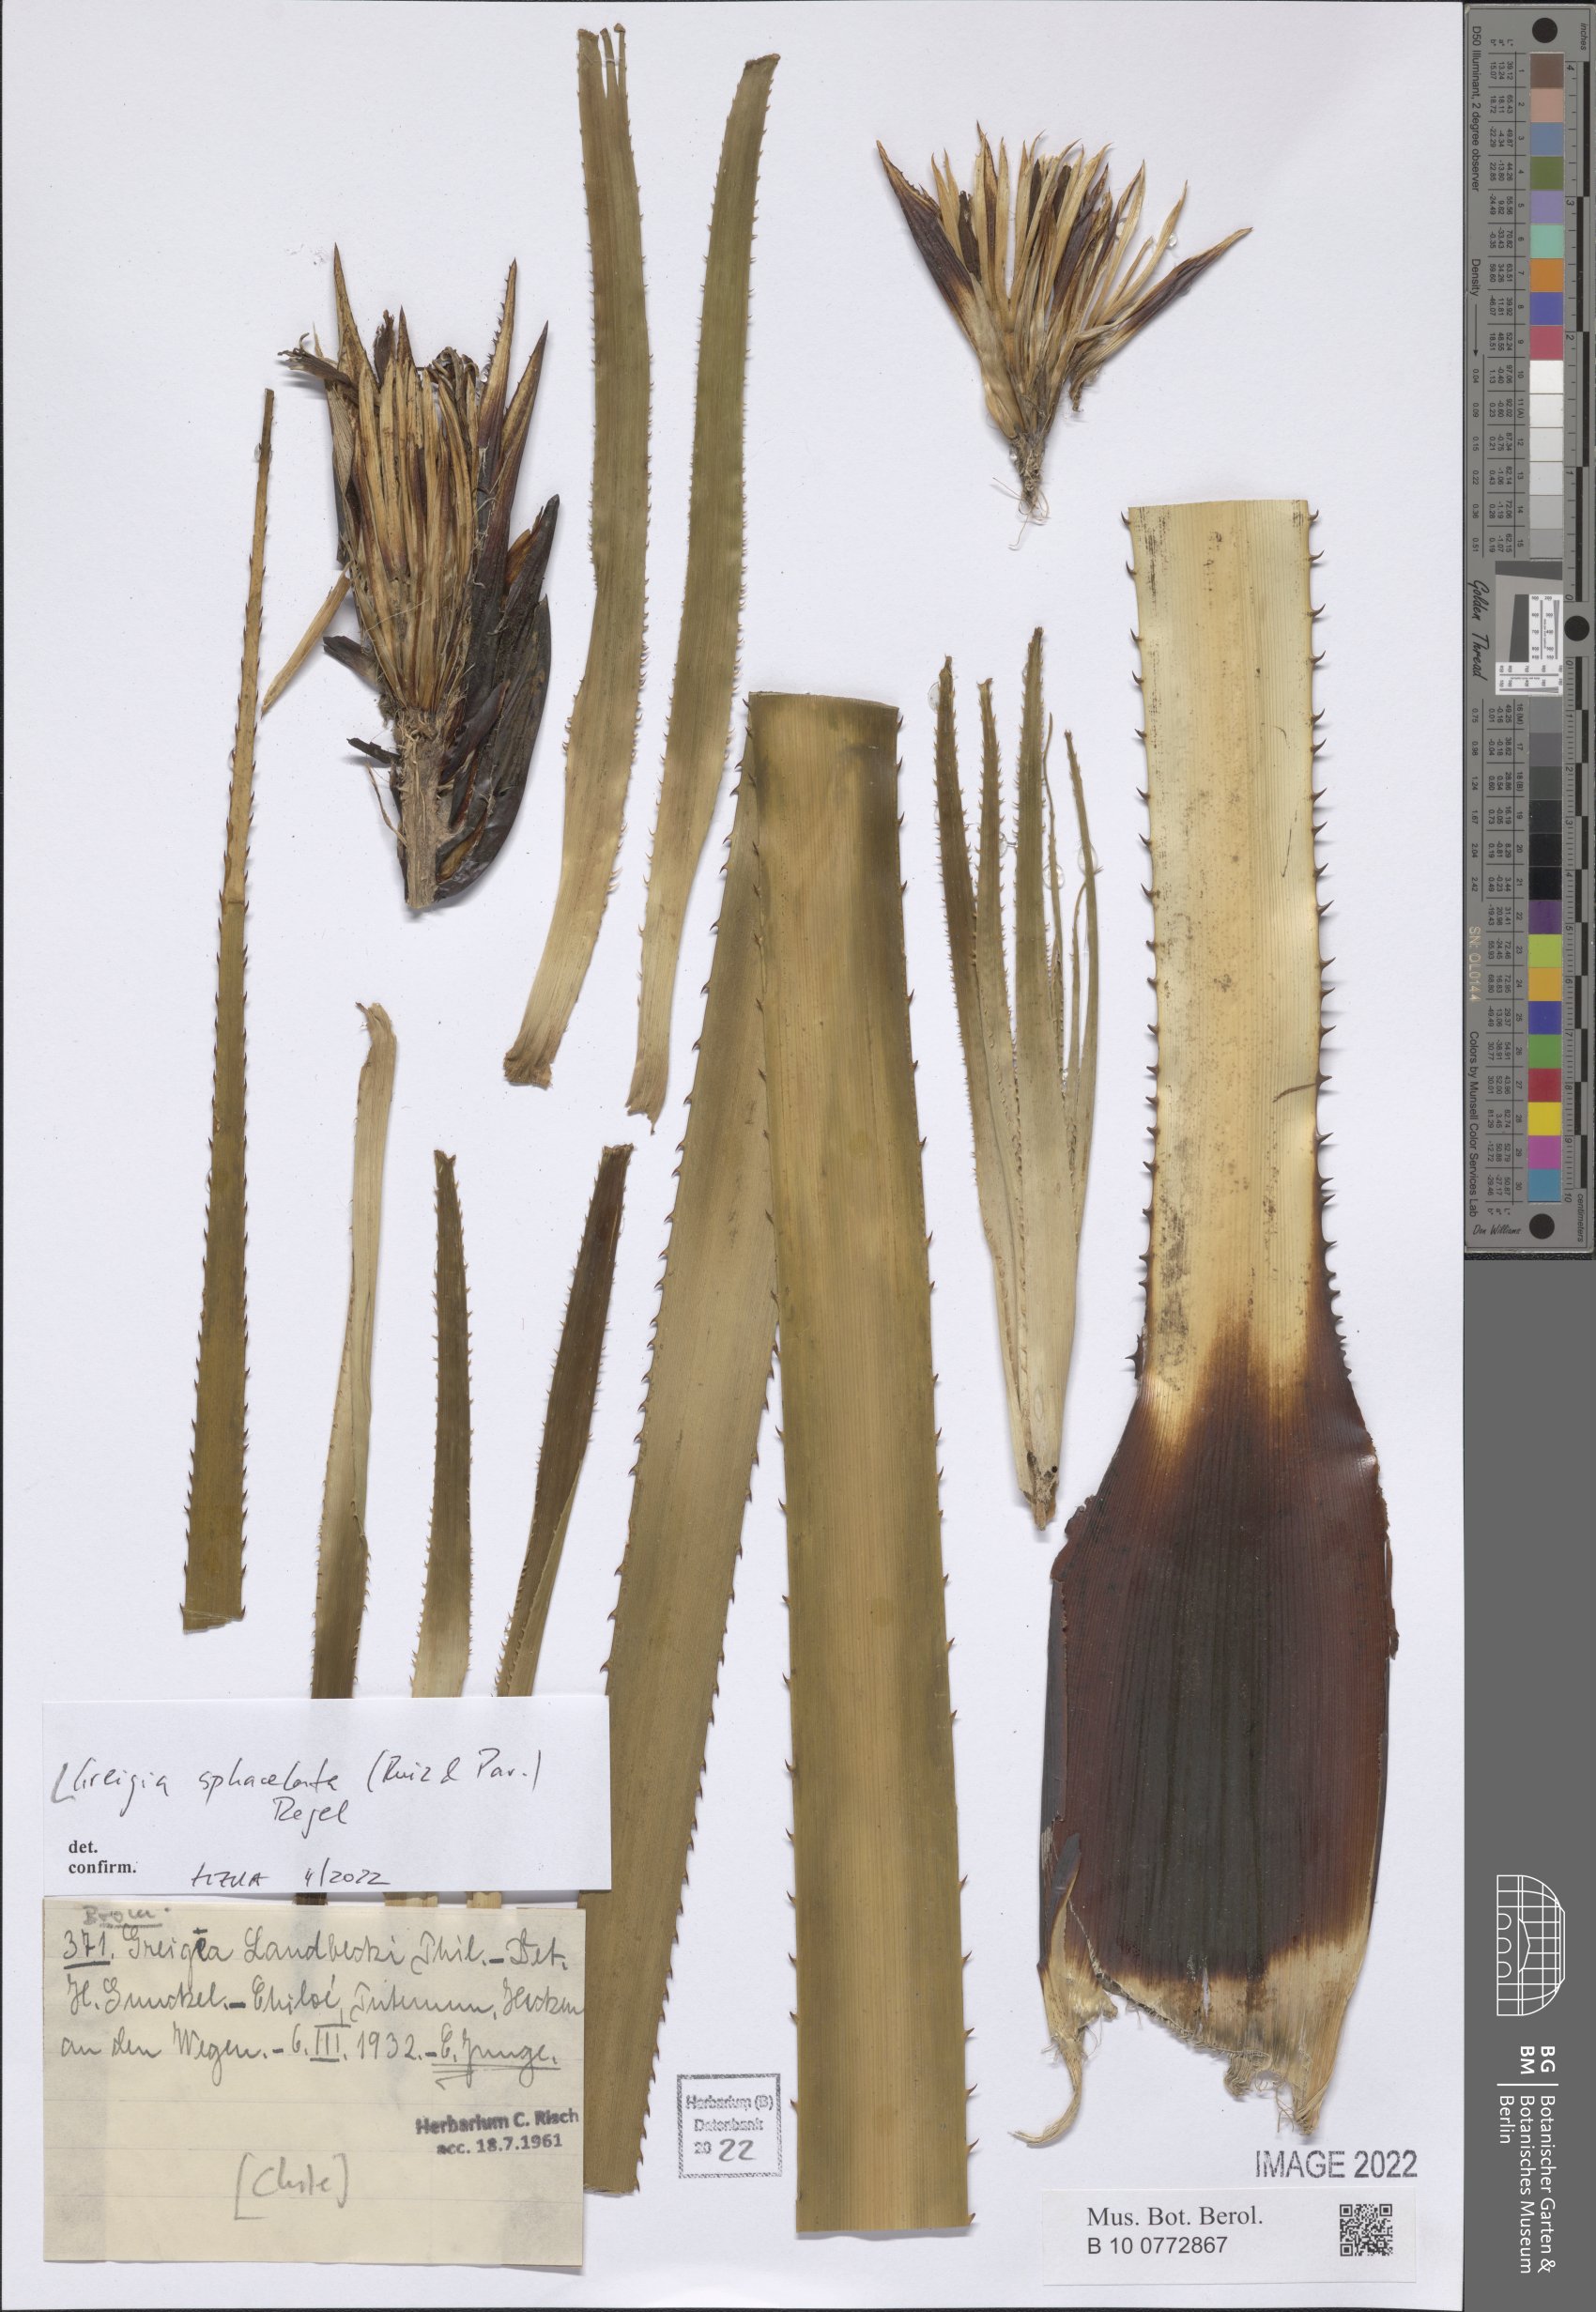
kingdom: Plantae
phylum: Tracheophyta
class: Liliopsida
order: Poales
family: Bromeliaceae
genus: Greigia
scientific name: Greigia sphacelata
